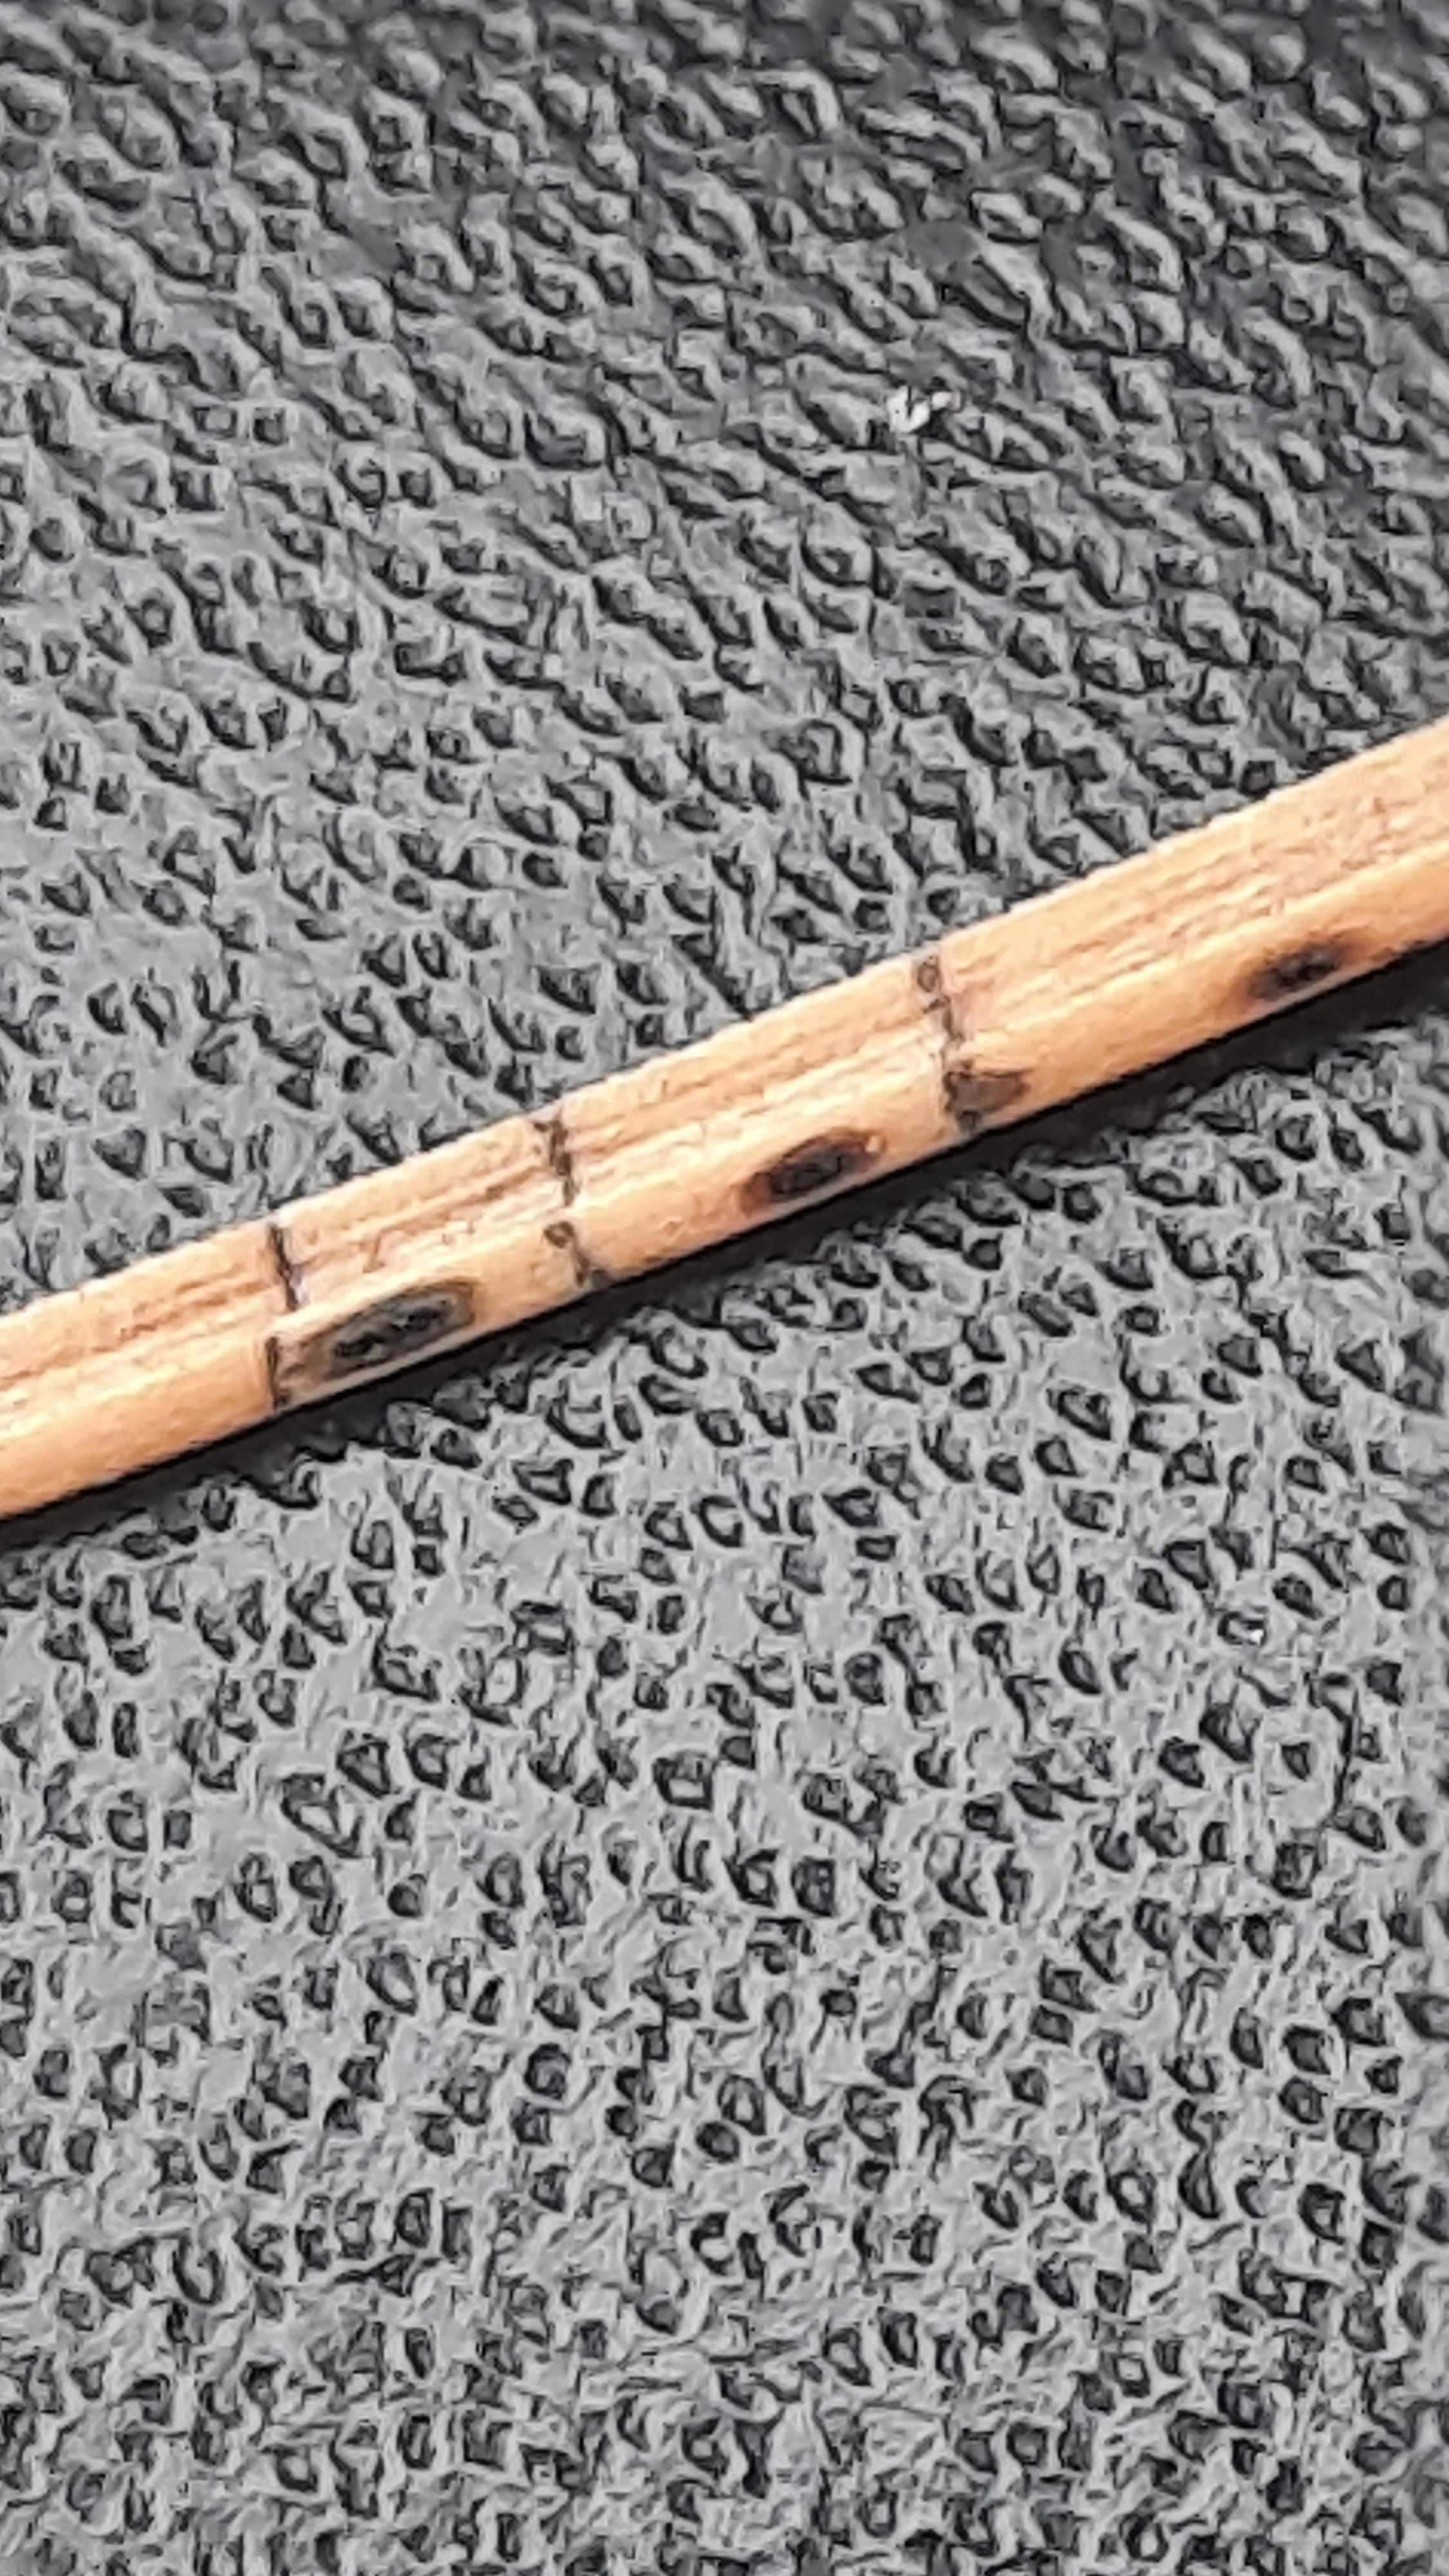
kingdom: Fungi
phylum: Ascomycota
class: Leotiomycetes
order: Rhytismatales
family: Rhytismataceae
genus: Lophodermium
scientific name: Lophodermium pinastri
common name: fyrre-fureplet
